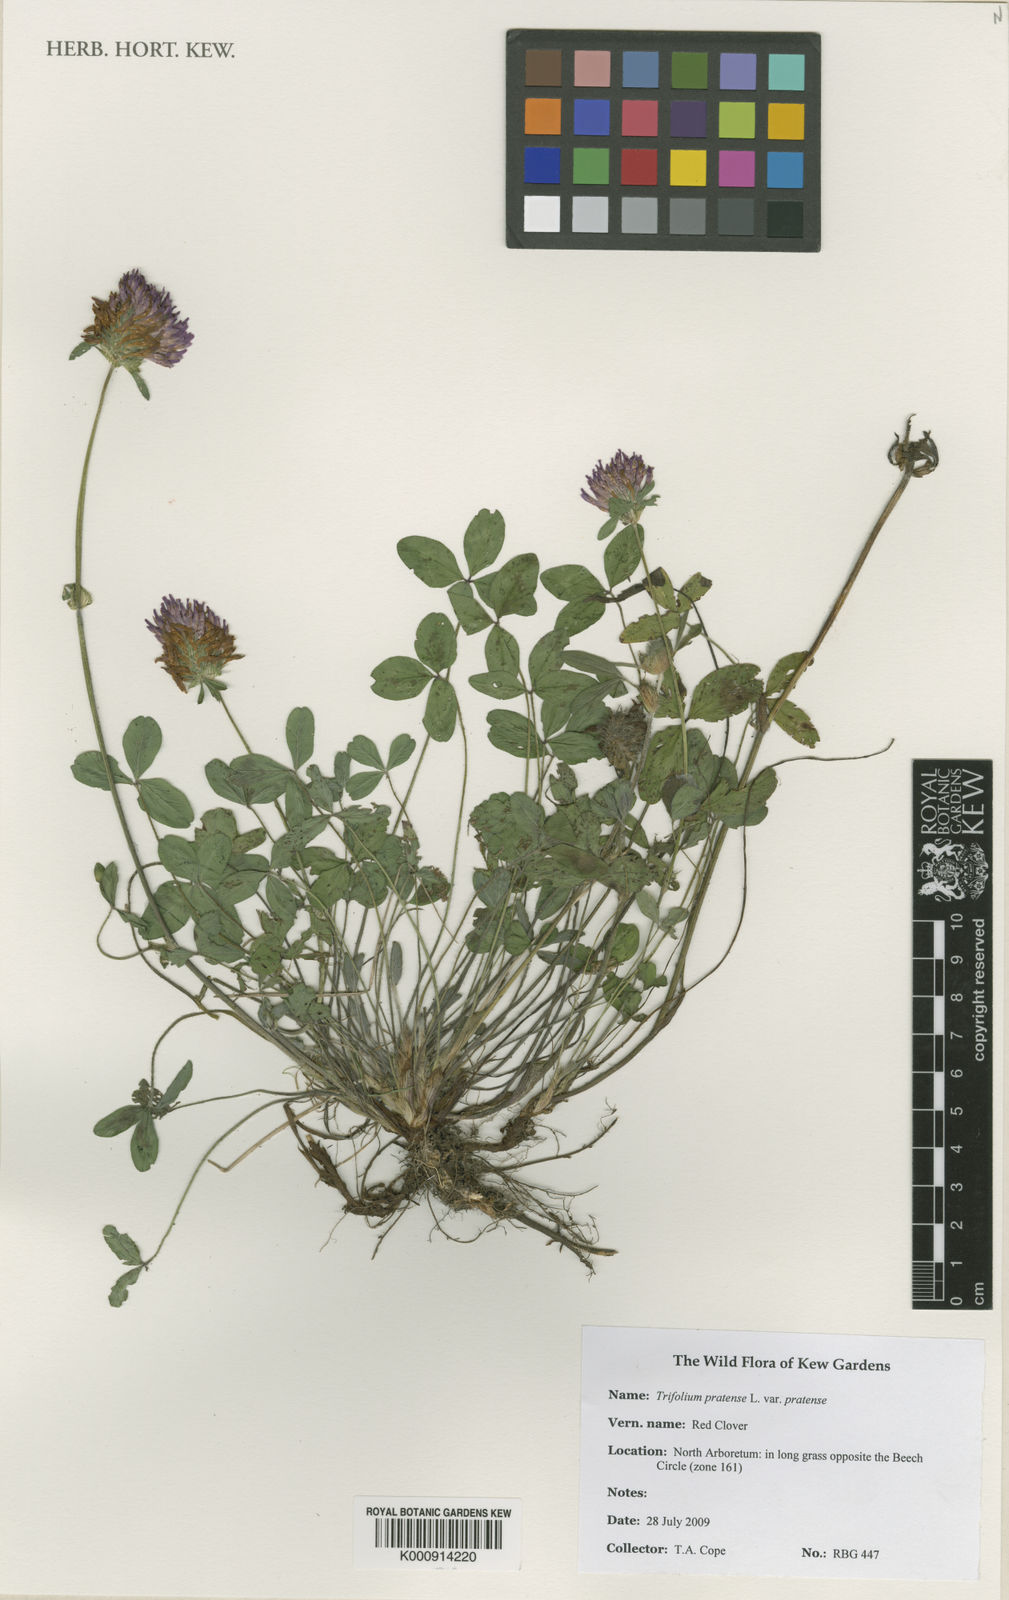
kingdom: Plantae
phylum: Tracheophyta
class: Magnoliopsida
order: Fabales
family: Fabaceae
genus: Trifolium
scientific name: Trifolium pratense
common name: Red clover
